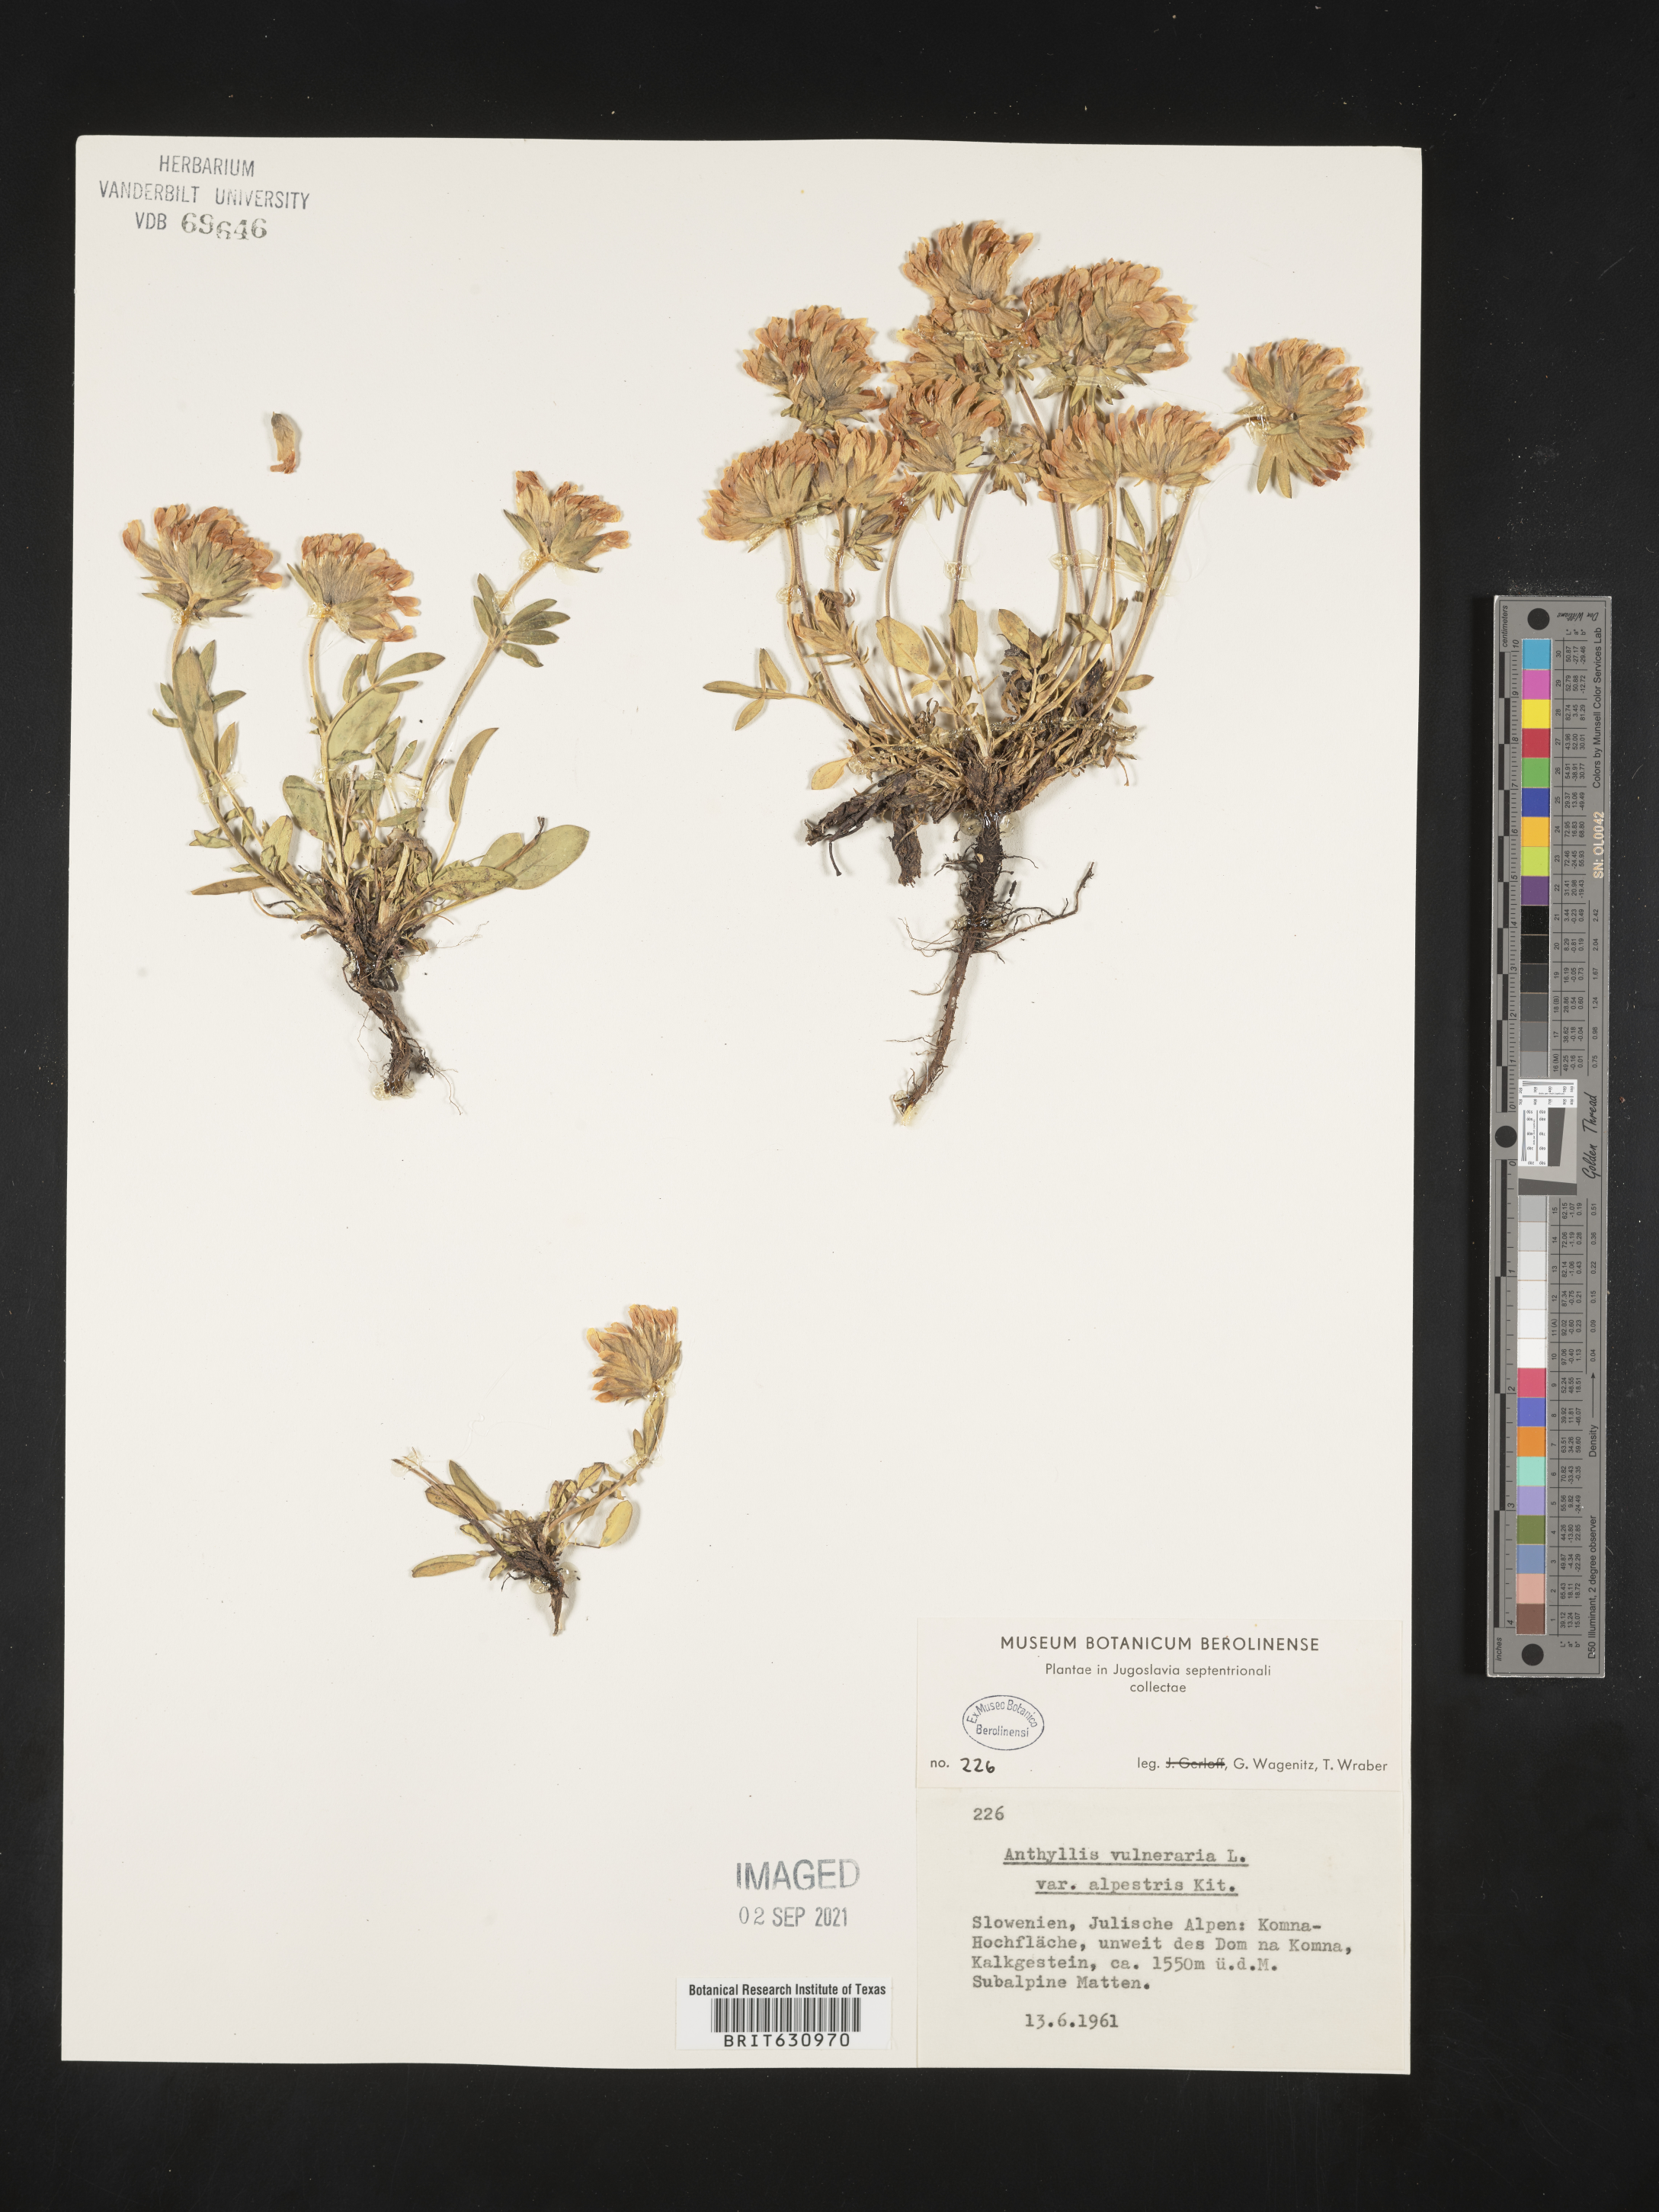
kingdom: Plantae
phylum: Tracheophyta
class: Magnoliopsida
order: Fabales
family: Fabaceae
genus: Anthyllis
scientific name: Anthyllis vulneraria
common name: Kidney vetch
